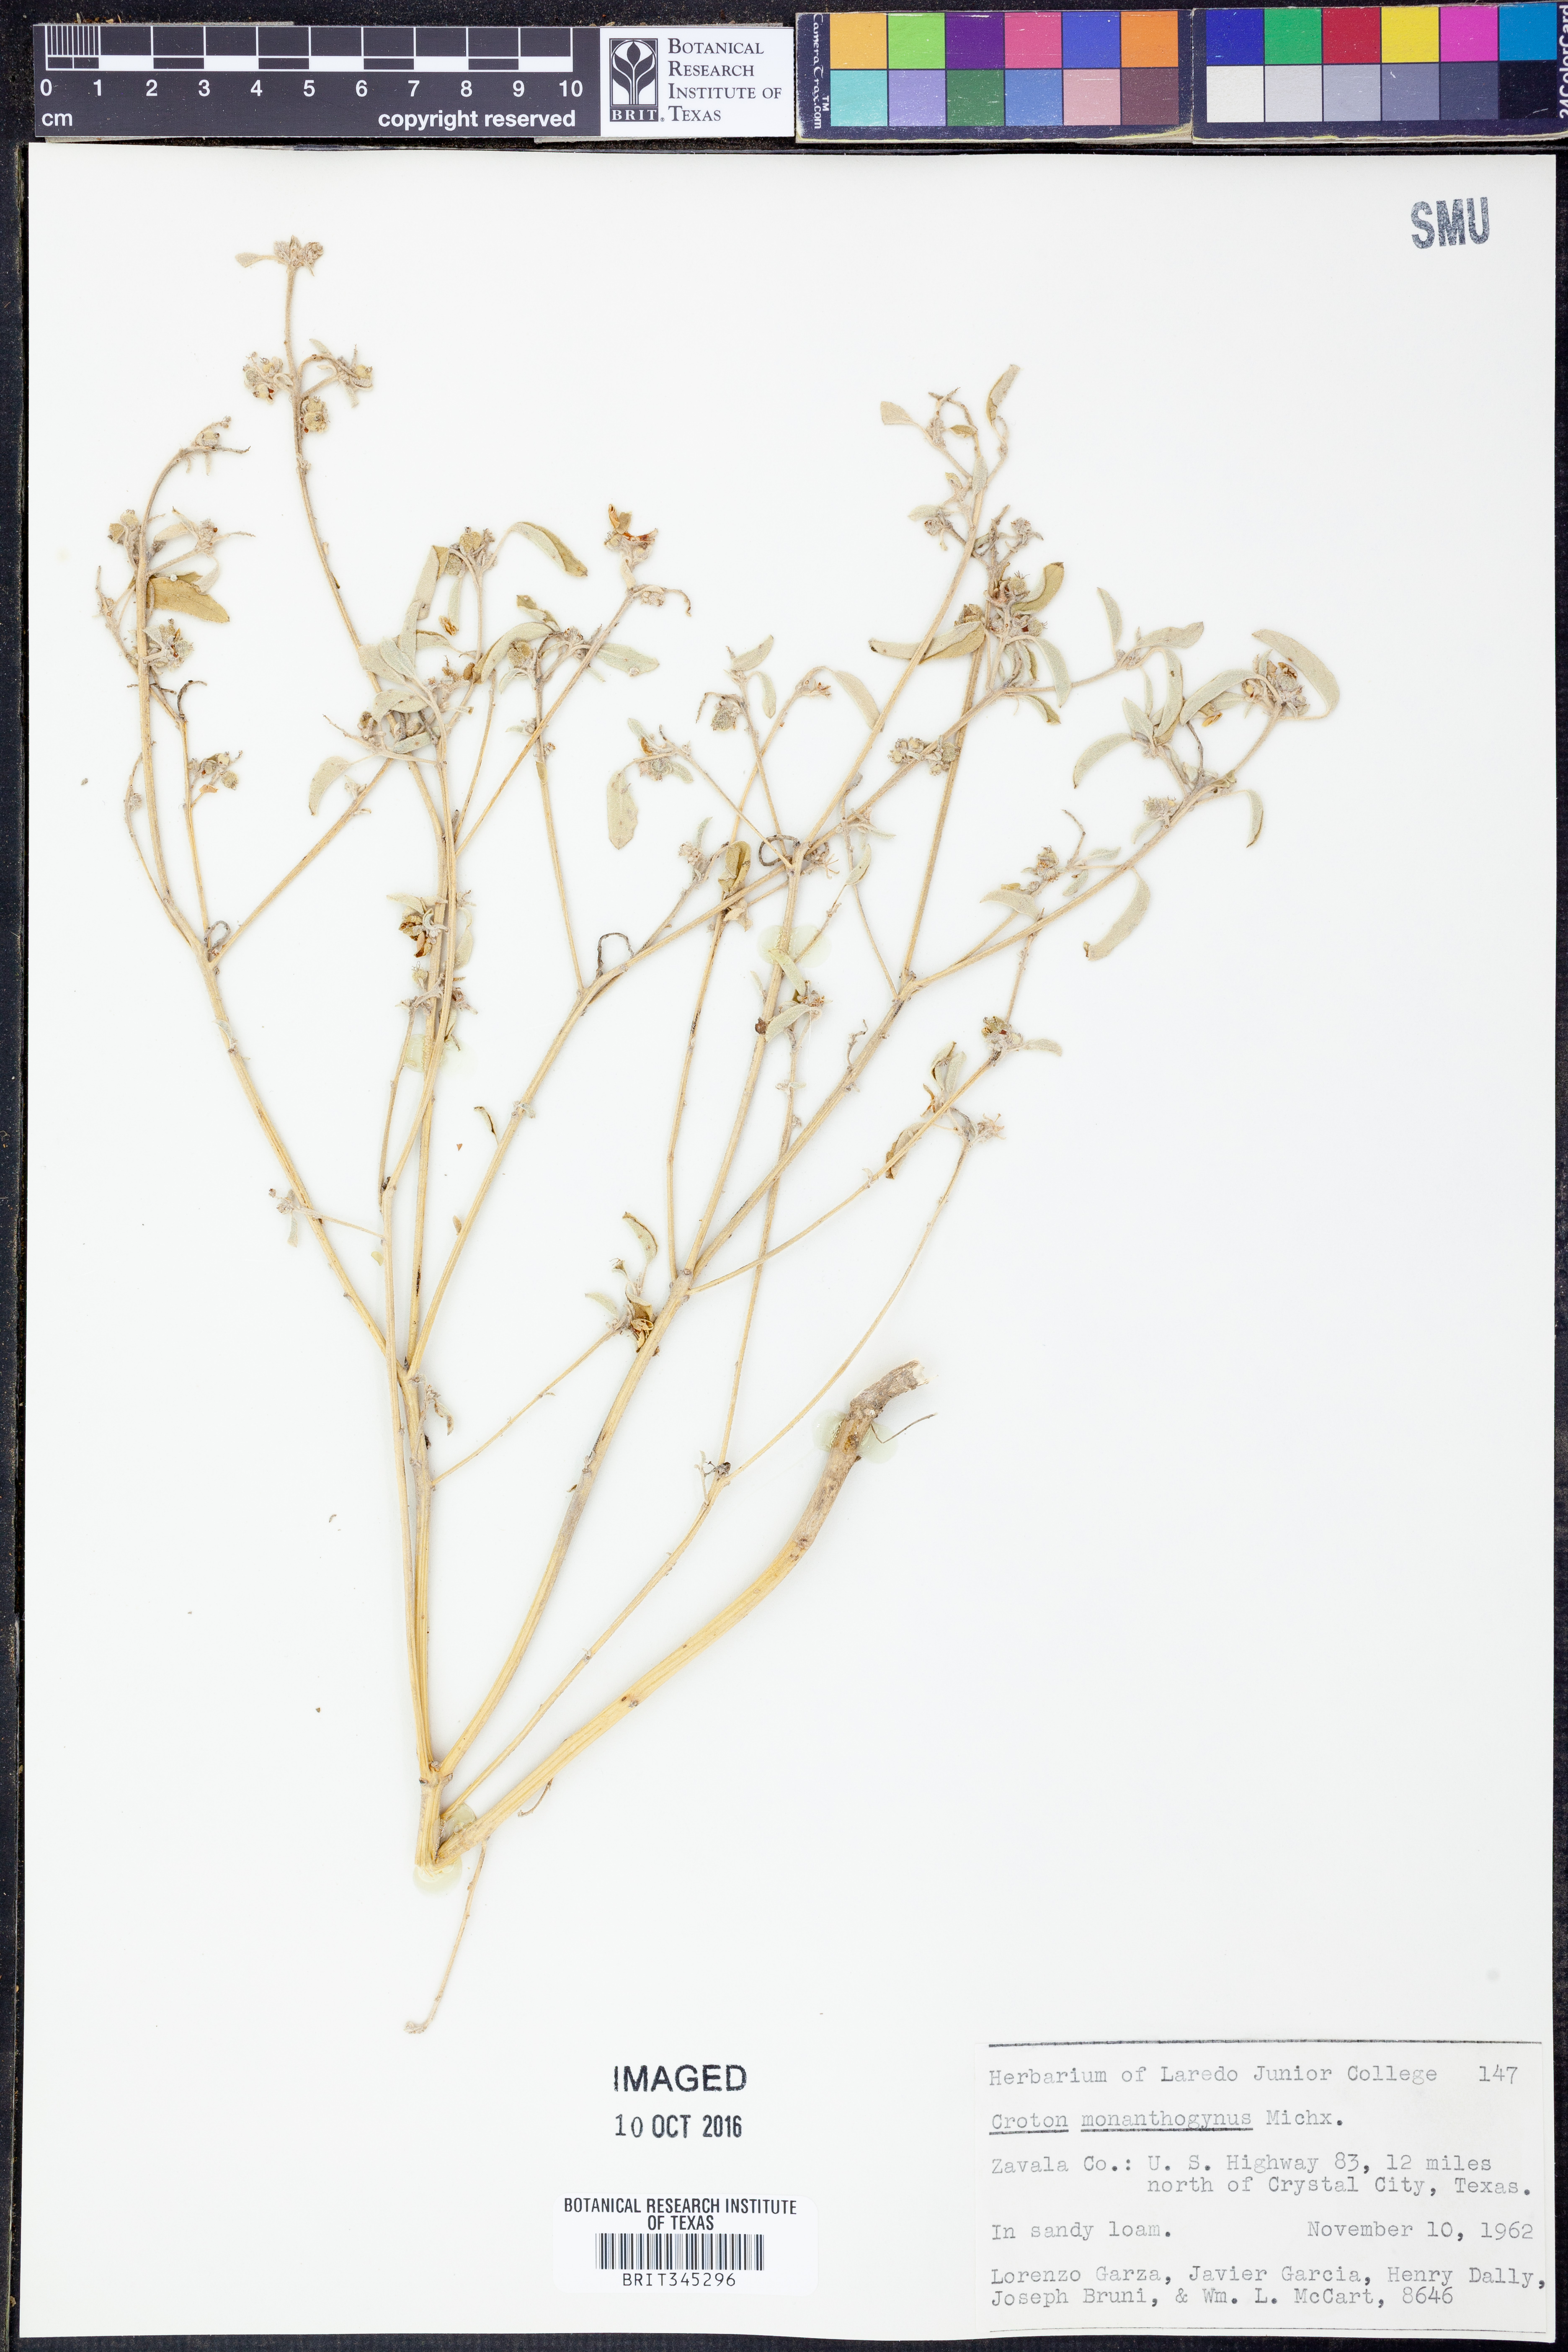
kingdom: Plantae
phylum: Tracheophyta
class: Magnoliopsida
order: Malpighiales
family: Euphorbiaceae
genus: Croton
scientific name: Croton monanthogynus
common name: One-seed croton
